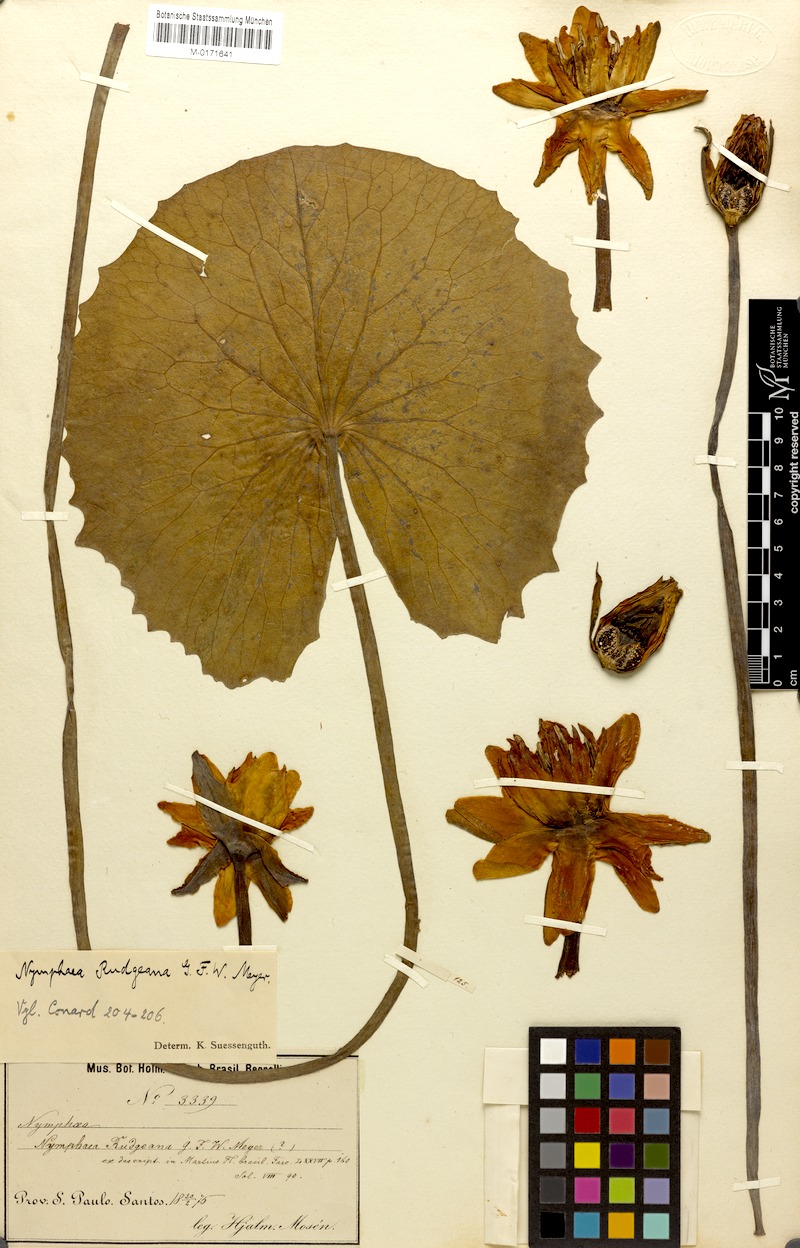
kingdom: Plantae
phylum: Tracheophyta
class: Magnoliopsida
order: Nymphaeales
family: Nymphaeaceae
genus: Nymphaea
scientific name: Nymphaea rudgeana
